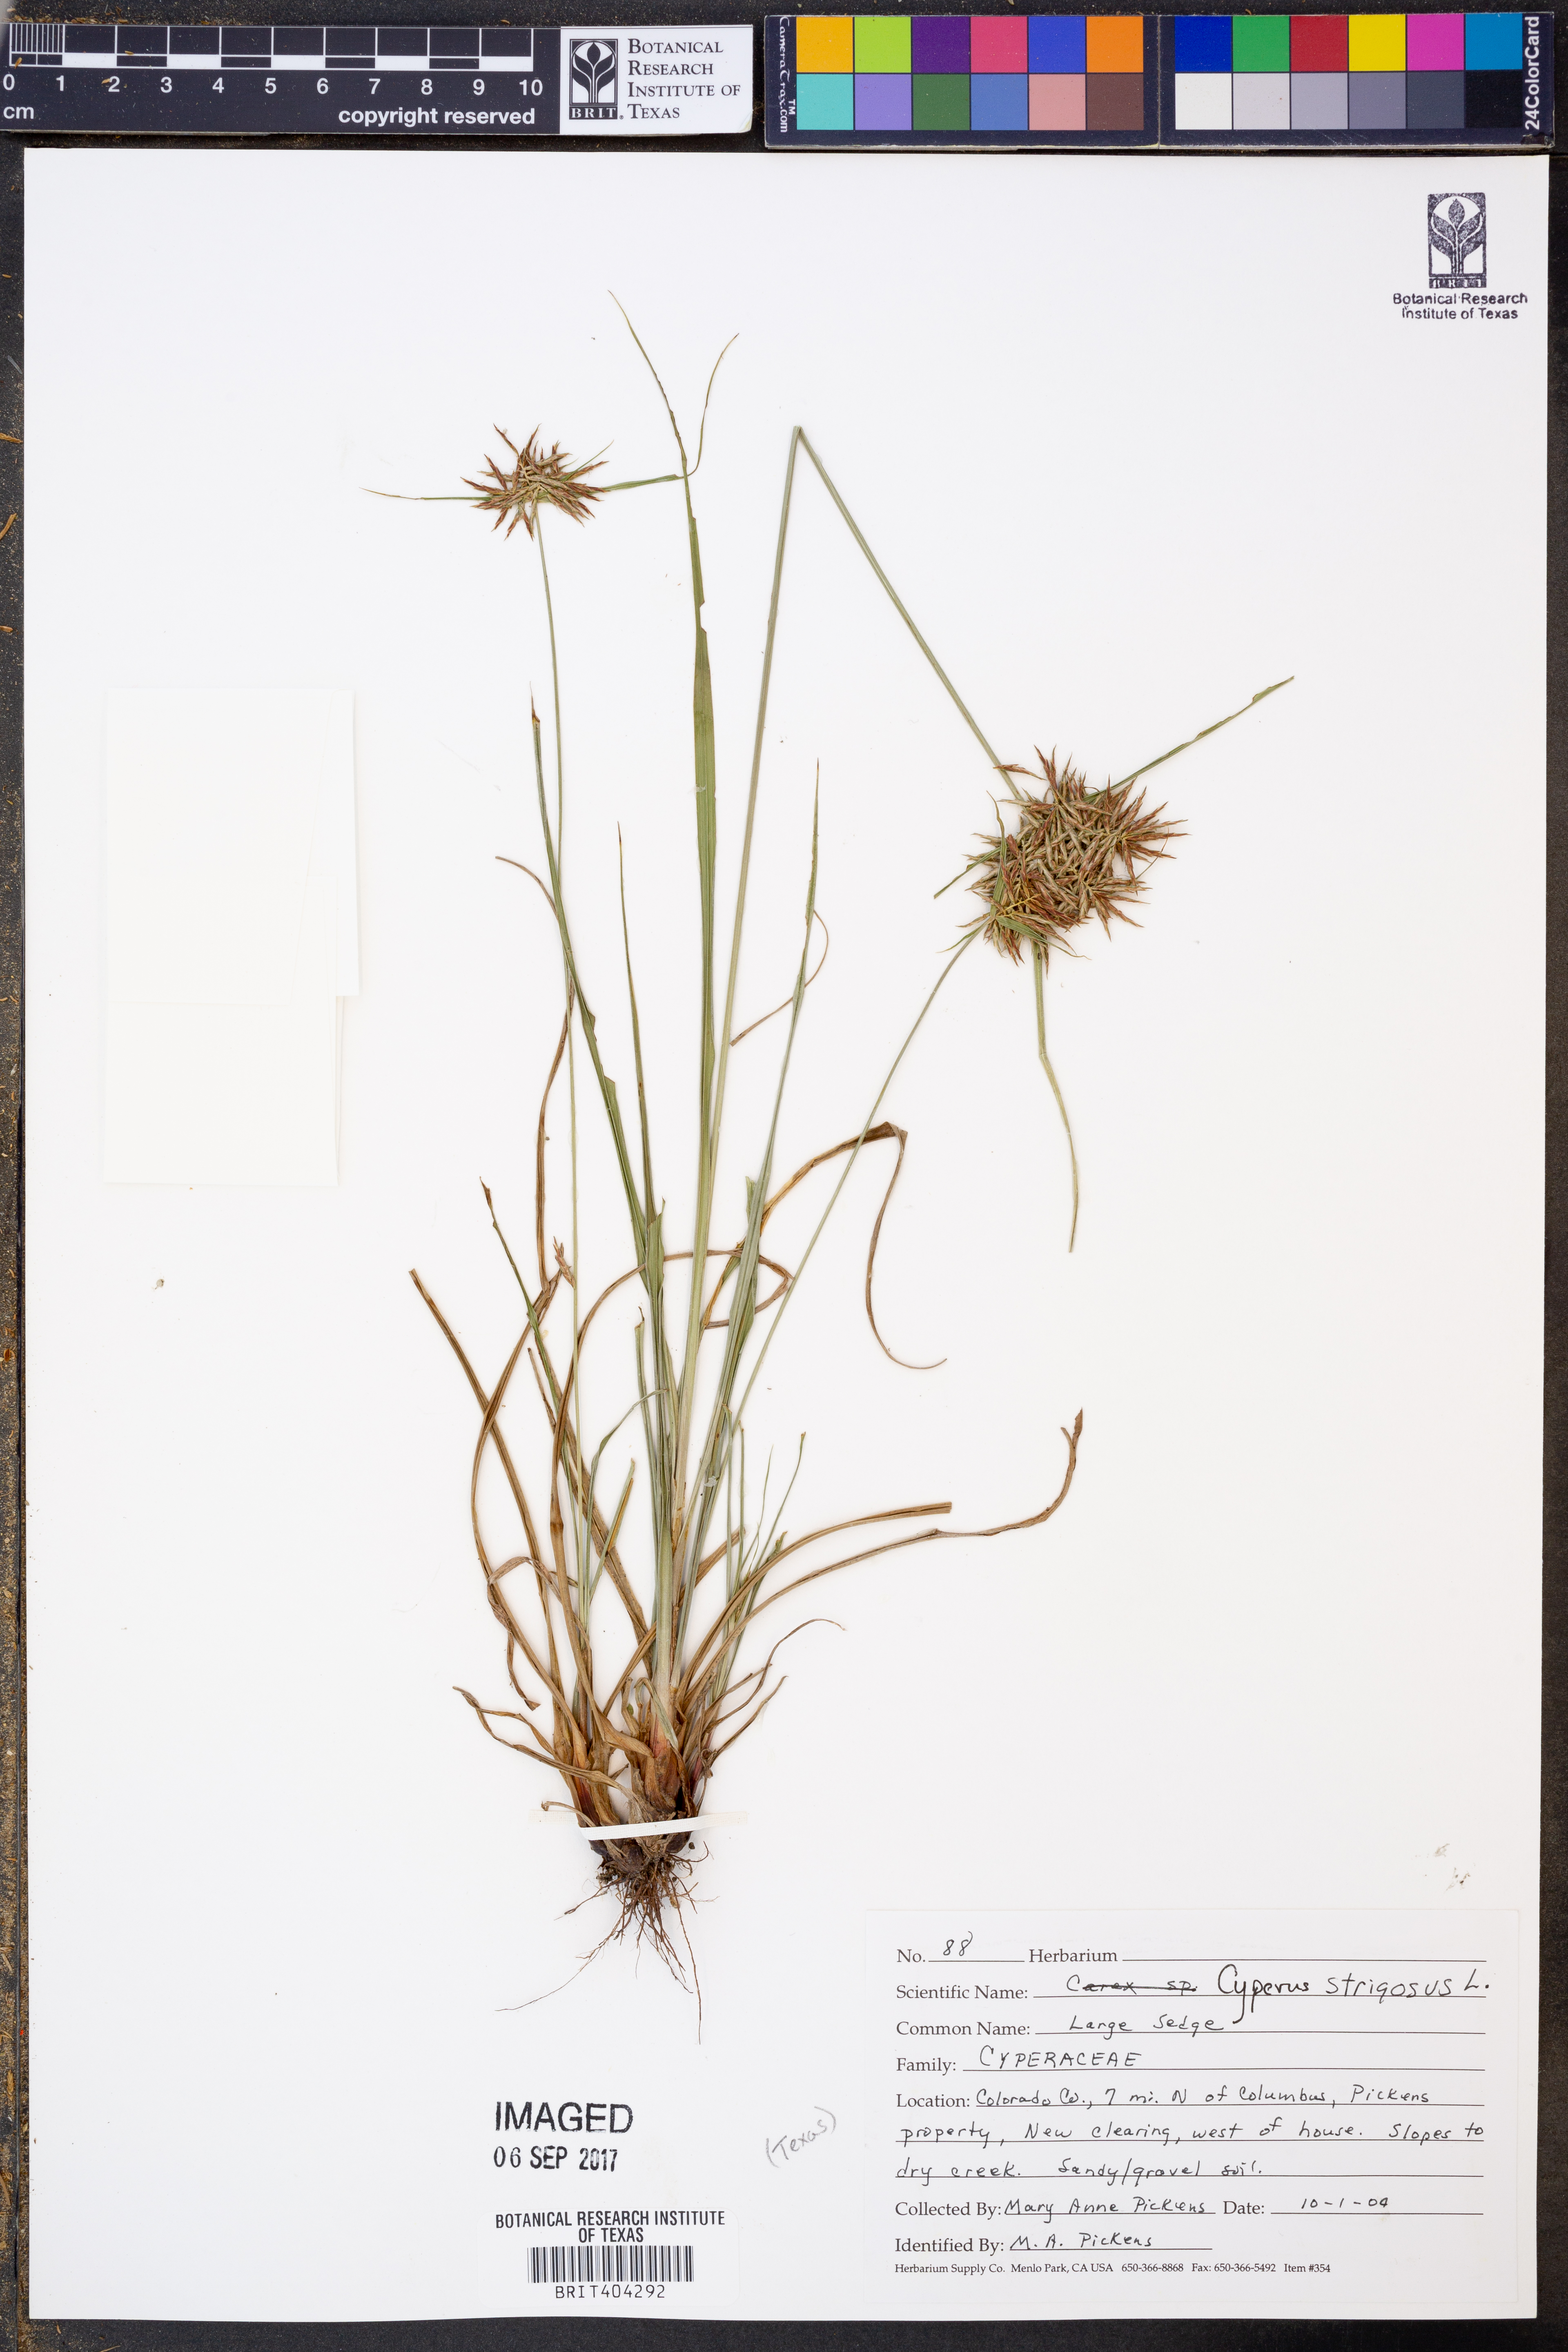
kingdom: Plantae
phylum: Tracheophyta
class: Liliopsida
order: Poales
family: Cyperaceae
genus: Cyperus
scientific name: Cyperus strigosus
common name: False nutsedge
